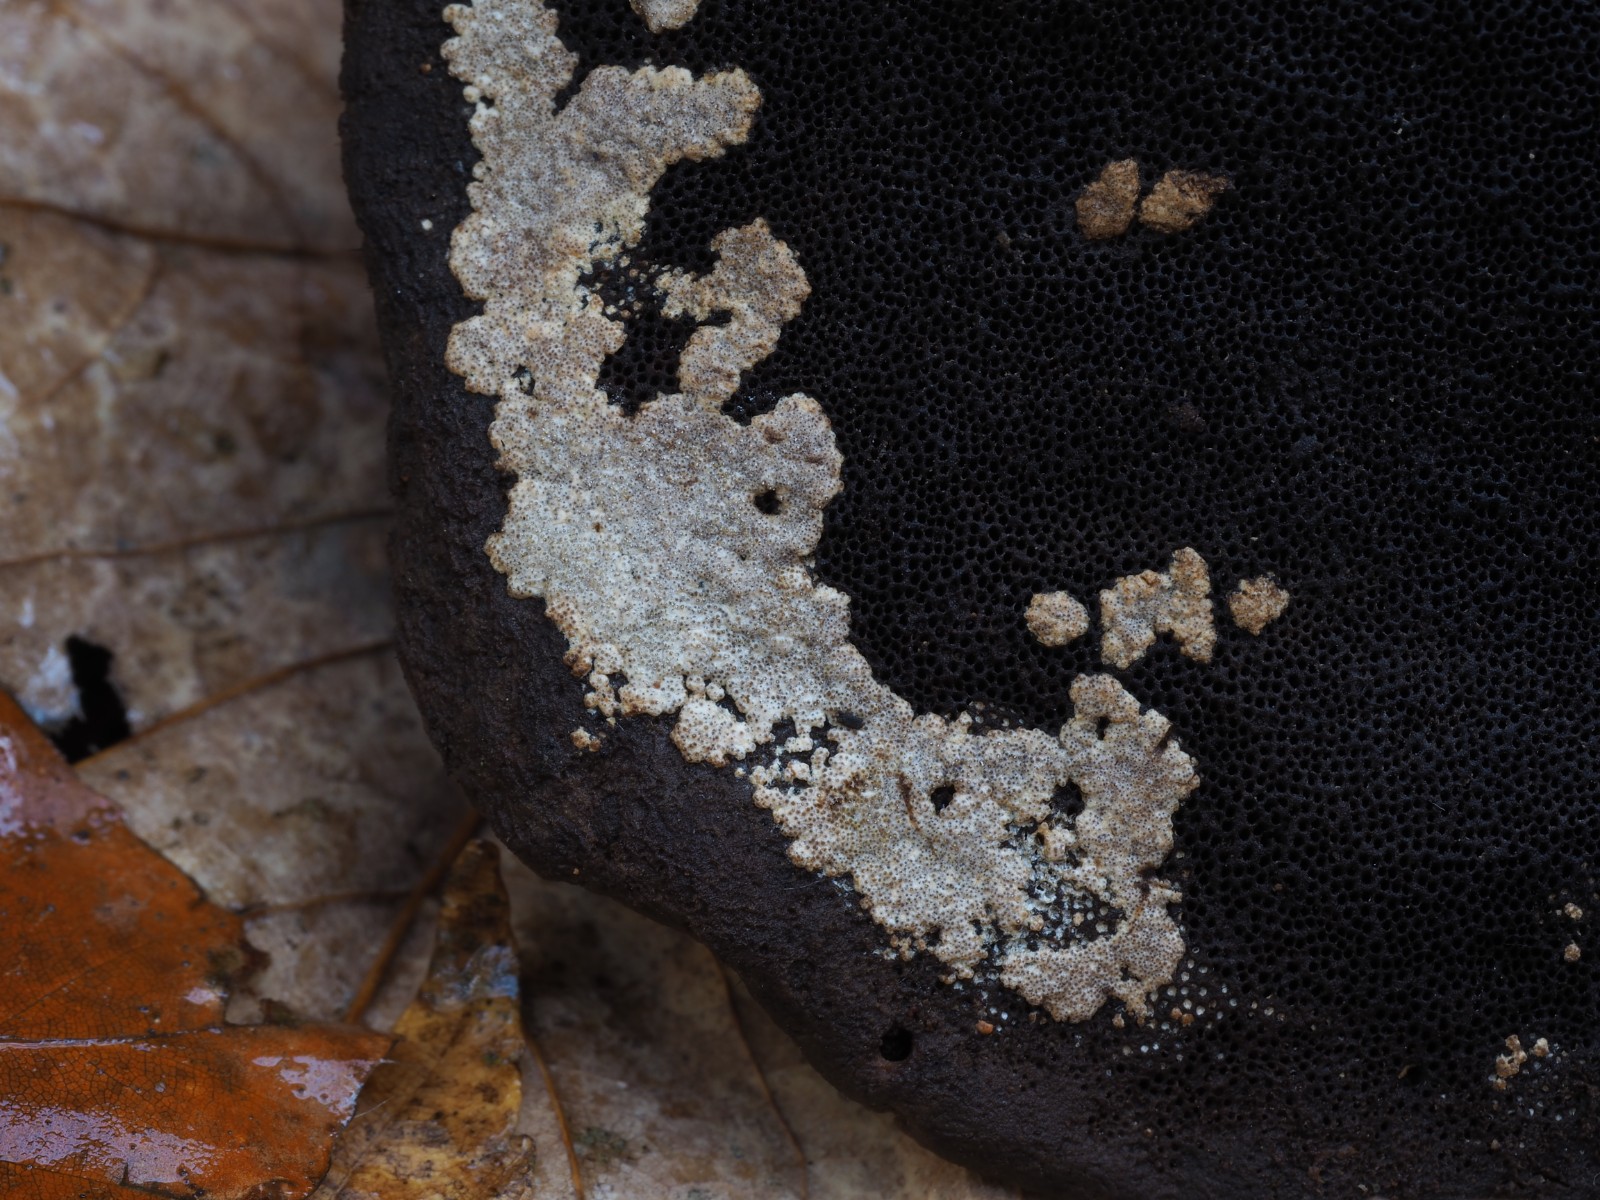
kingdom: Fungi
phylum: Ascomycota
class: Sordariomycetes
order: Hypocreales
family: Hypocreaceae
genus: Trichoderma
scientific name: Trichoderma protopulvinatum
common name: hovpore-kødkerne
